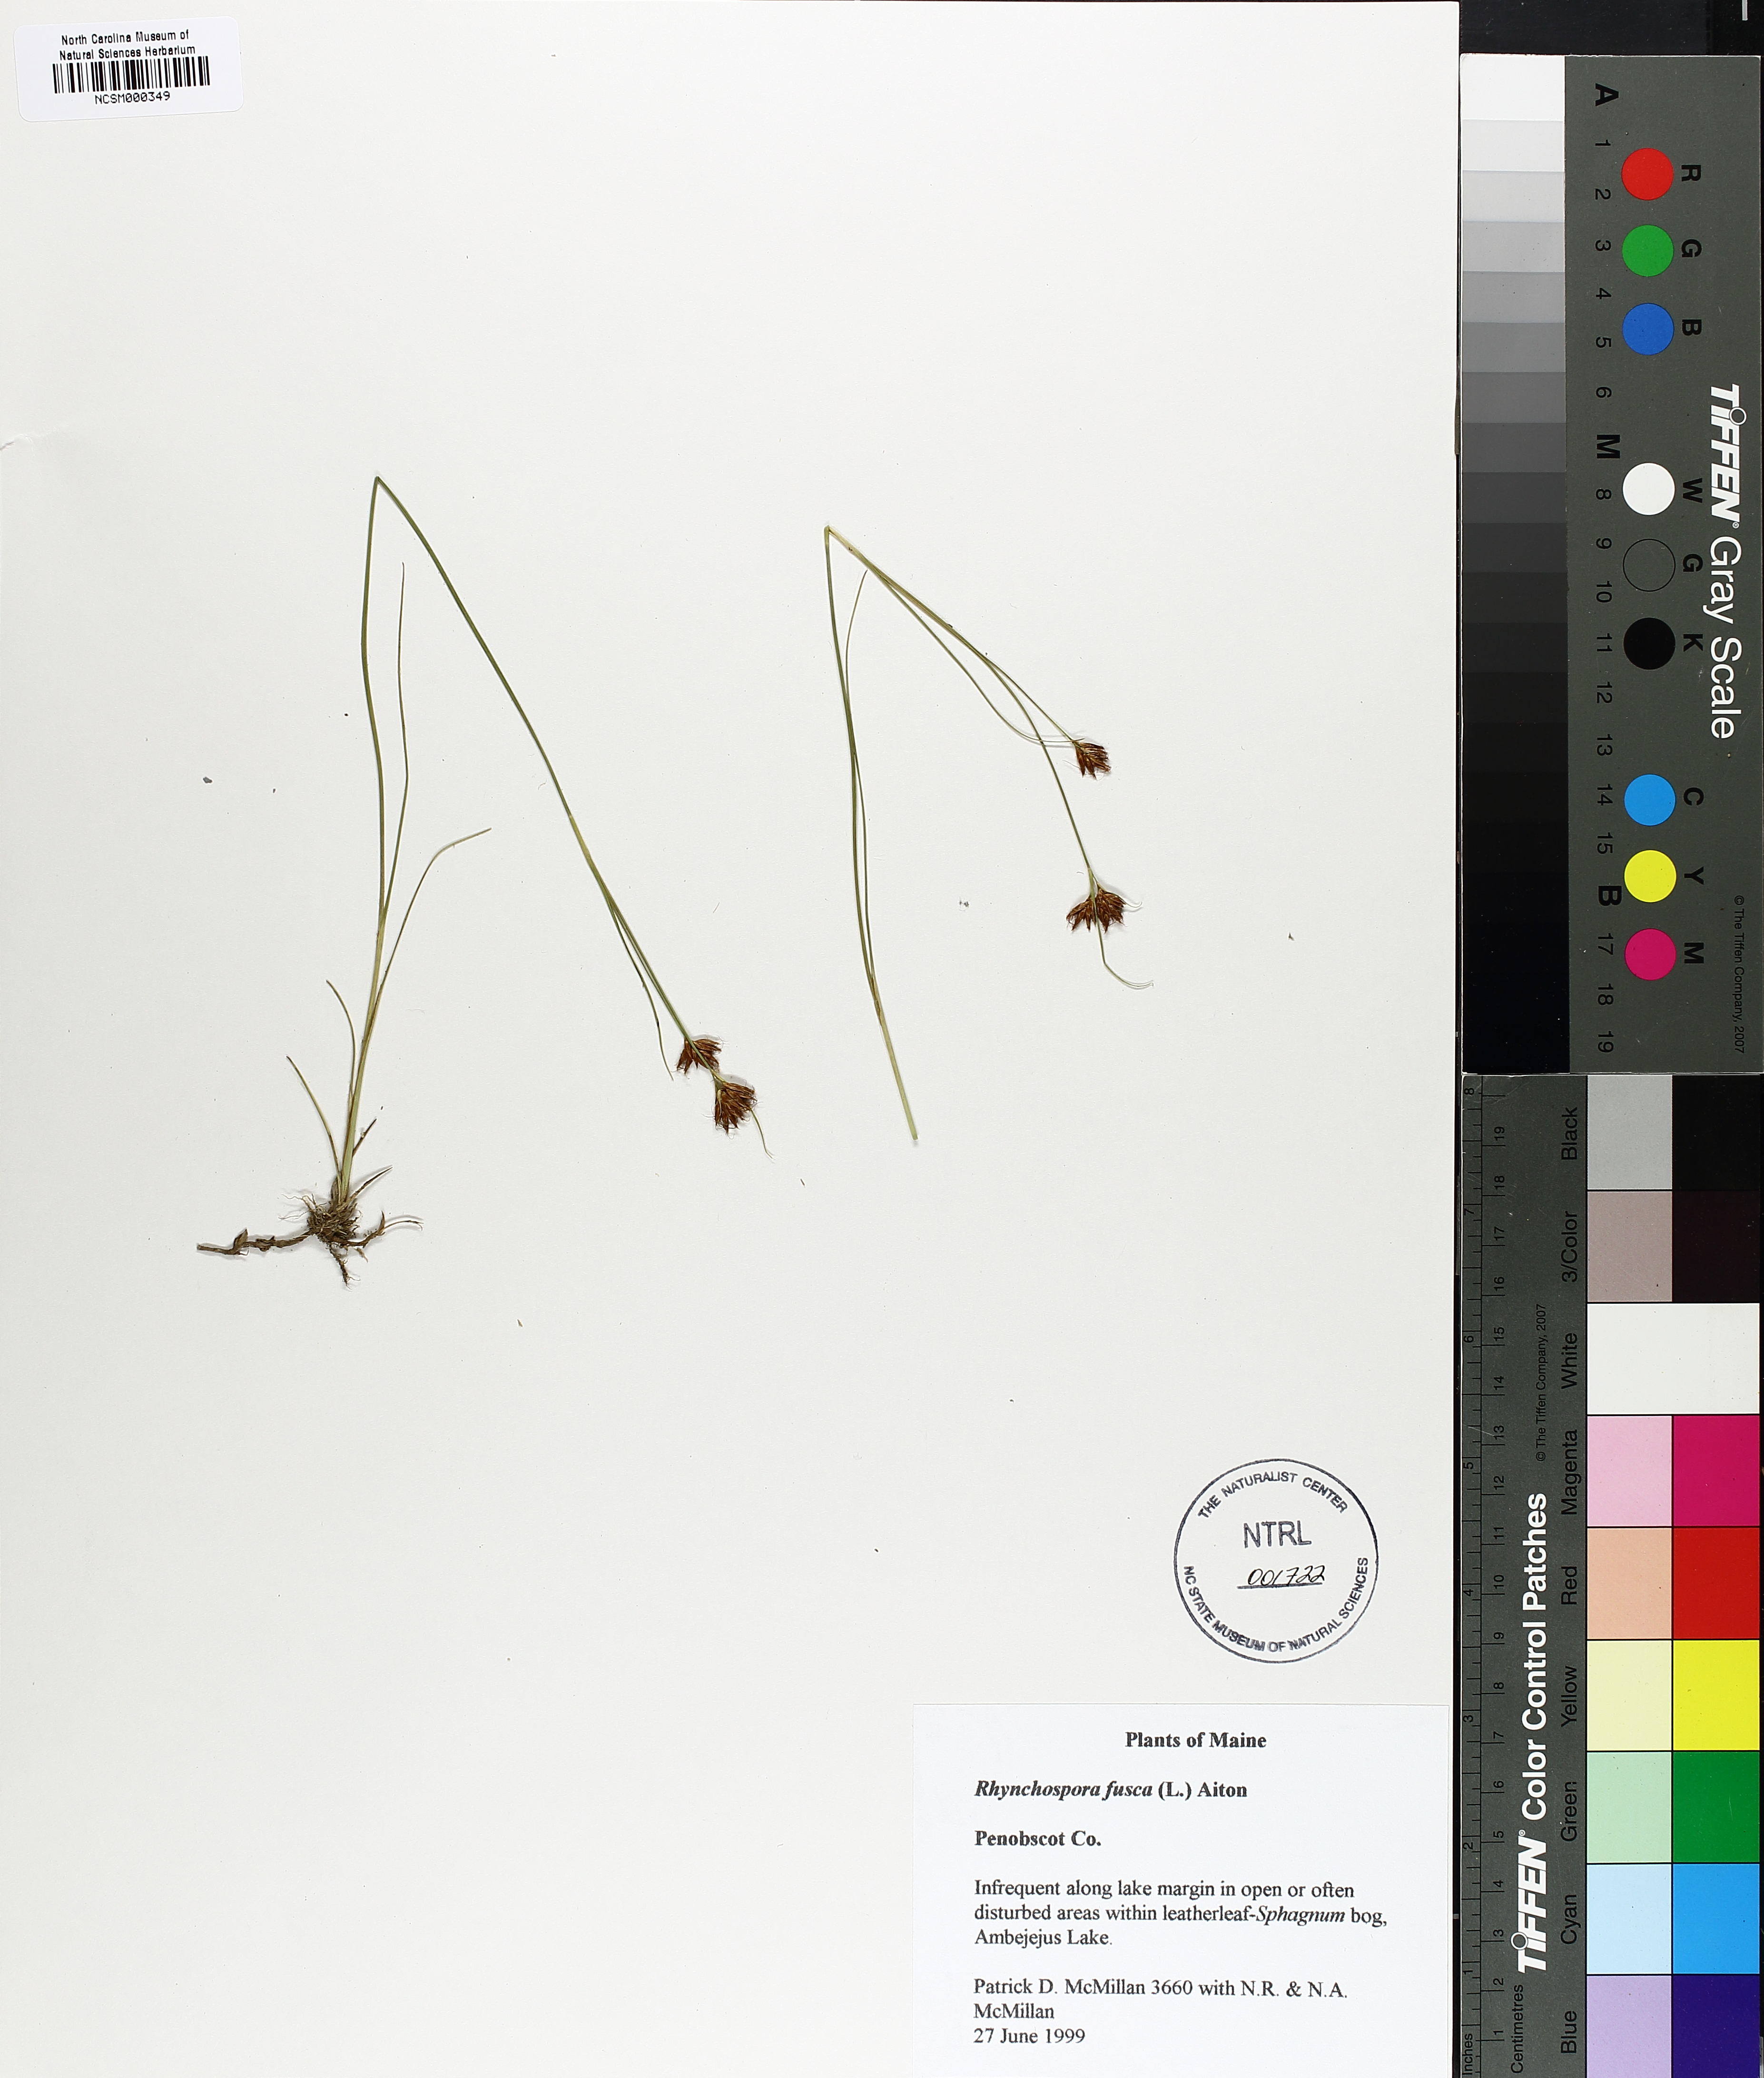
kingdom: Plantae
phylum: Tracheophyta
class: Liliopsida
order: Poales
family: Cyperaceae
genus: Rhynchospora
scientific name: Rhynchospora fusca
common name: Brown beak-sedge
